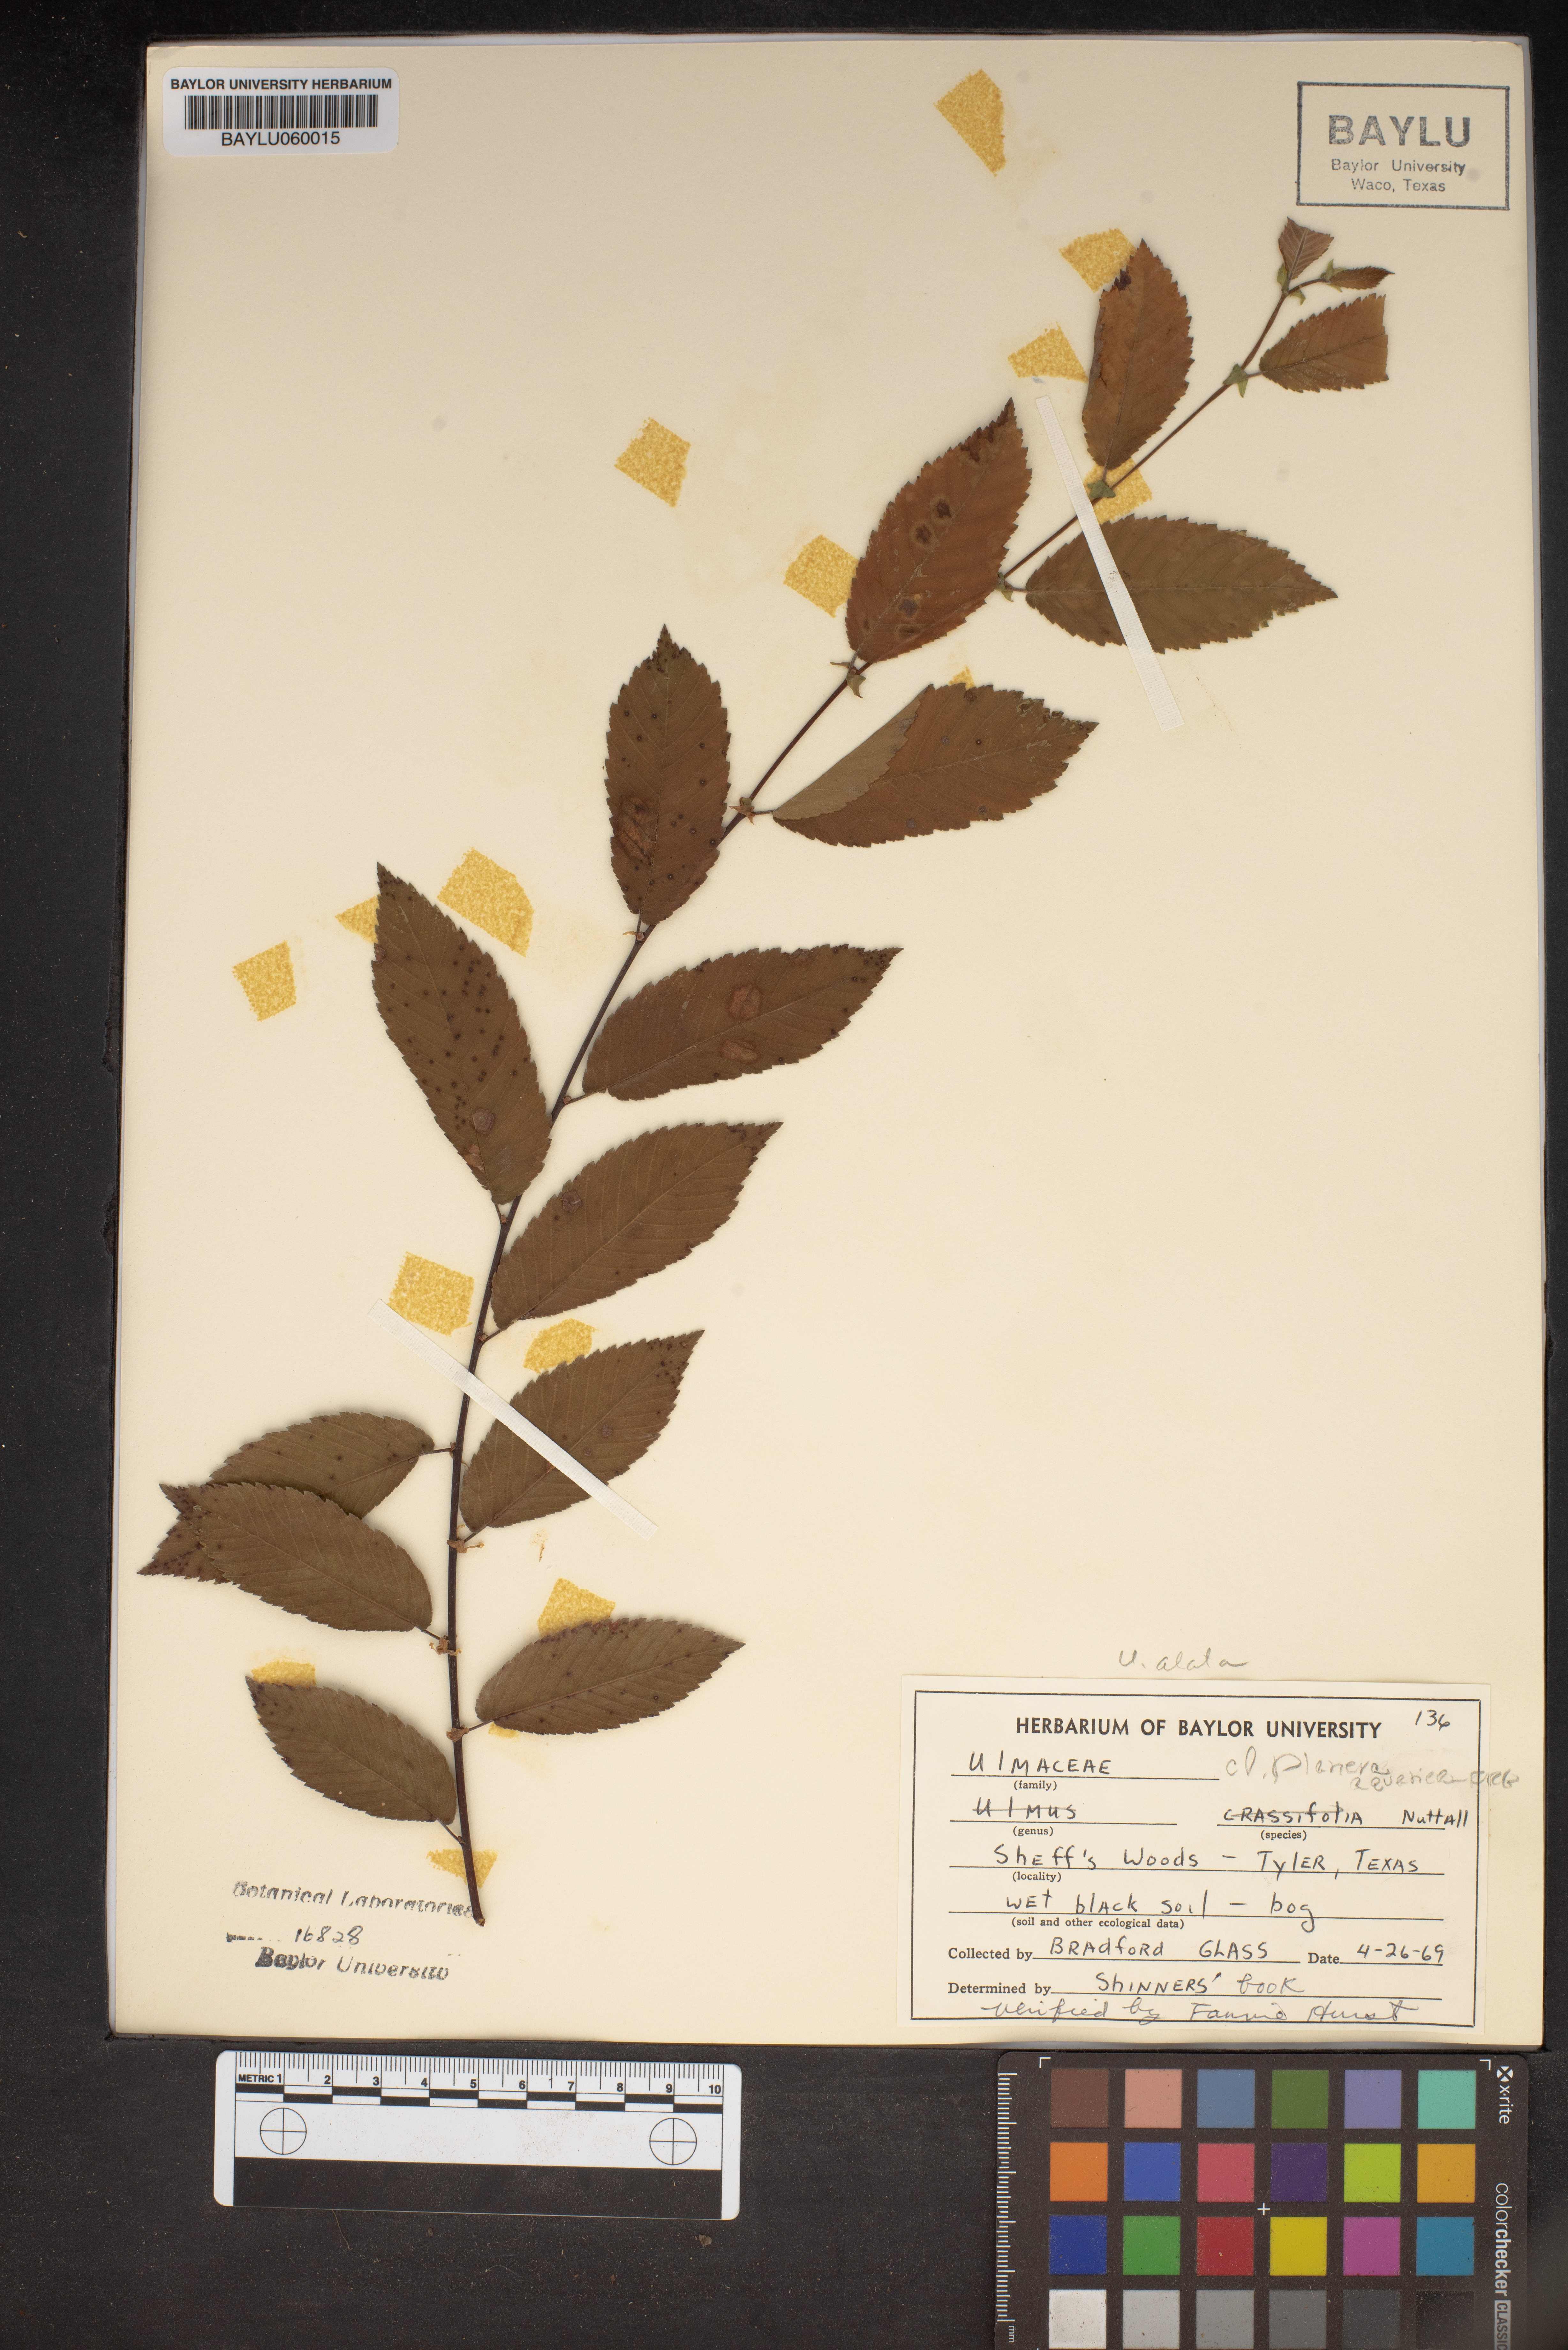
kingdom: Plantae
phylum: Tracheophyta
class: Magnoliopsida
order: Rosales
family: Ulmaceae
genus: Planera
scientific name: Planera aquatica
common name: Water-elm
